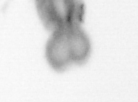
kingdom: Animalia
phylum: Arthropoda
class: Copepoda
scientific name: Copepoda
